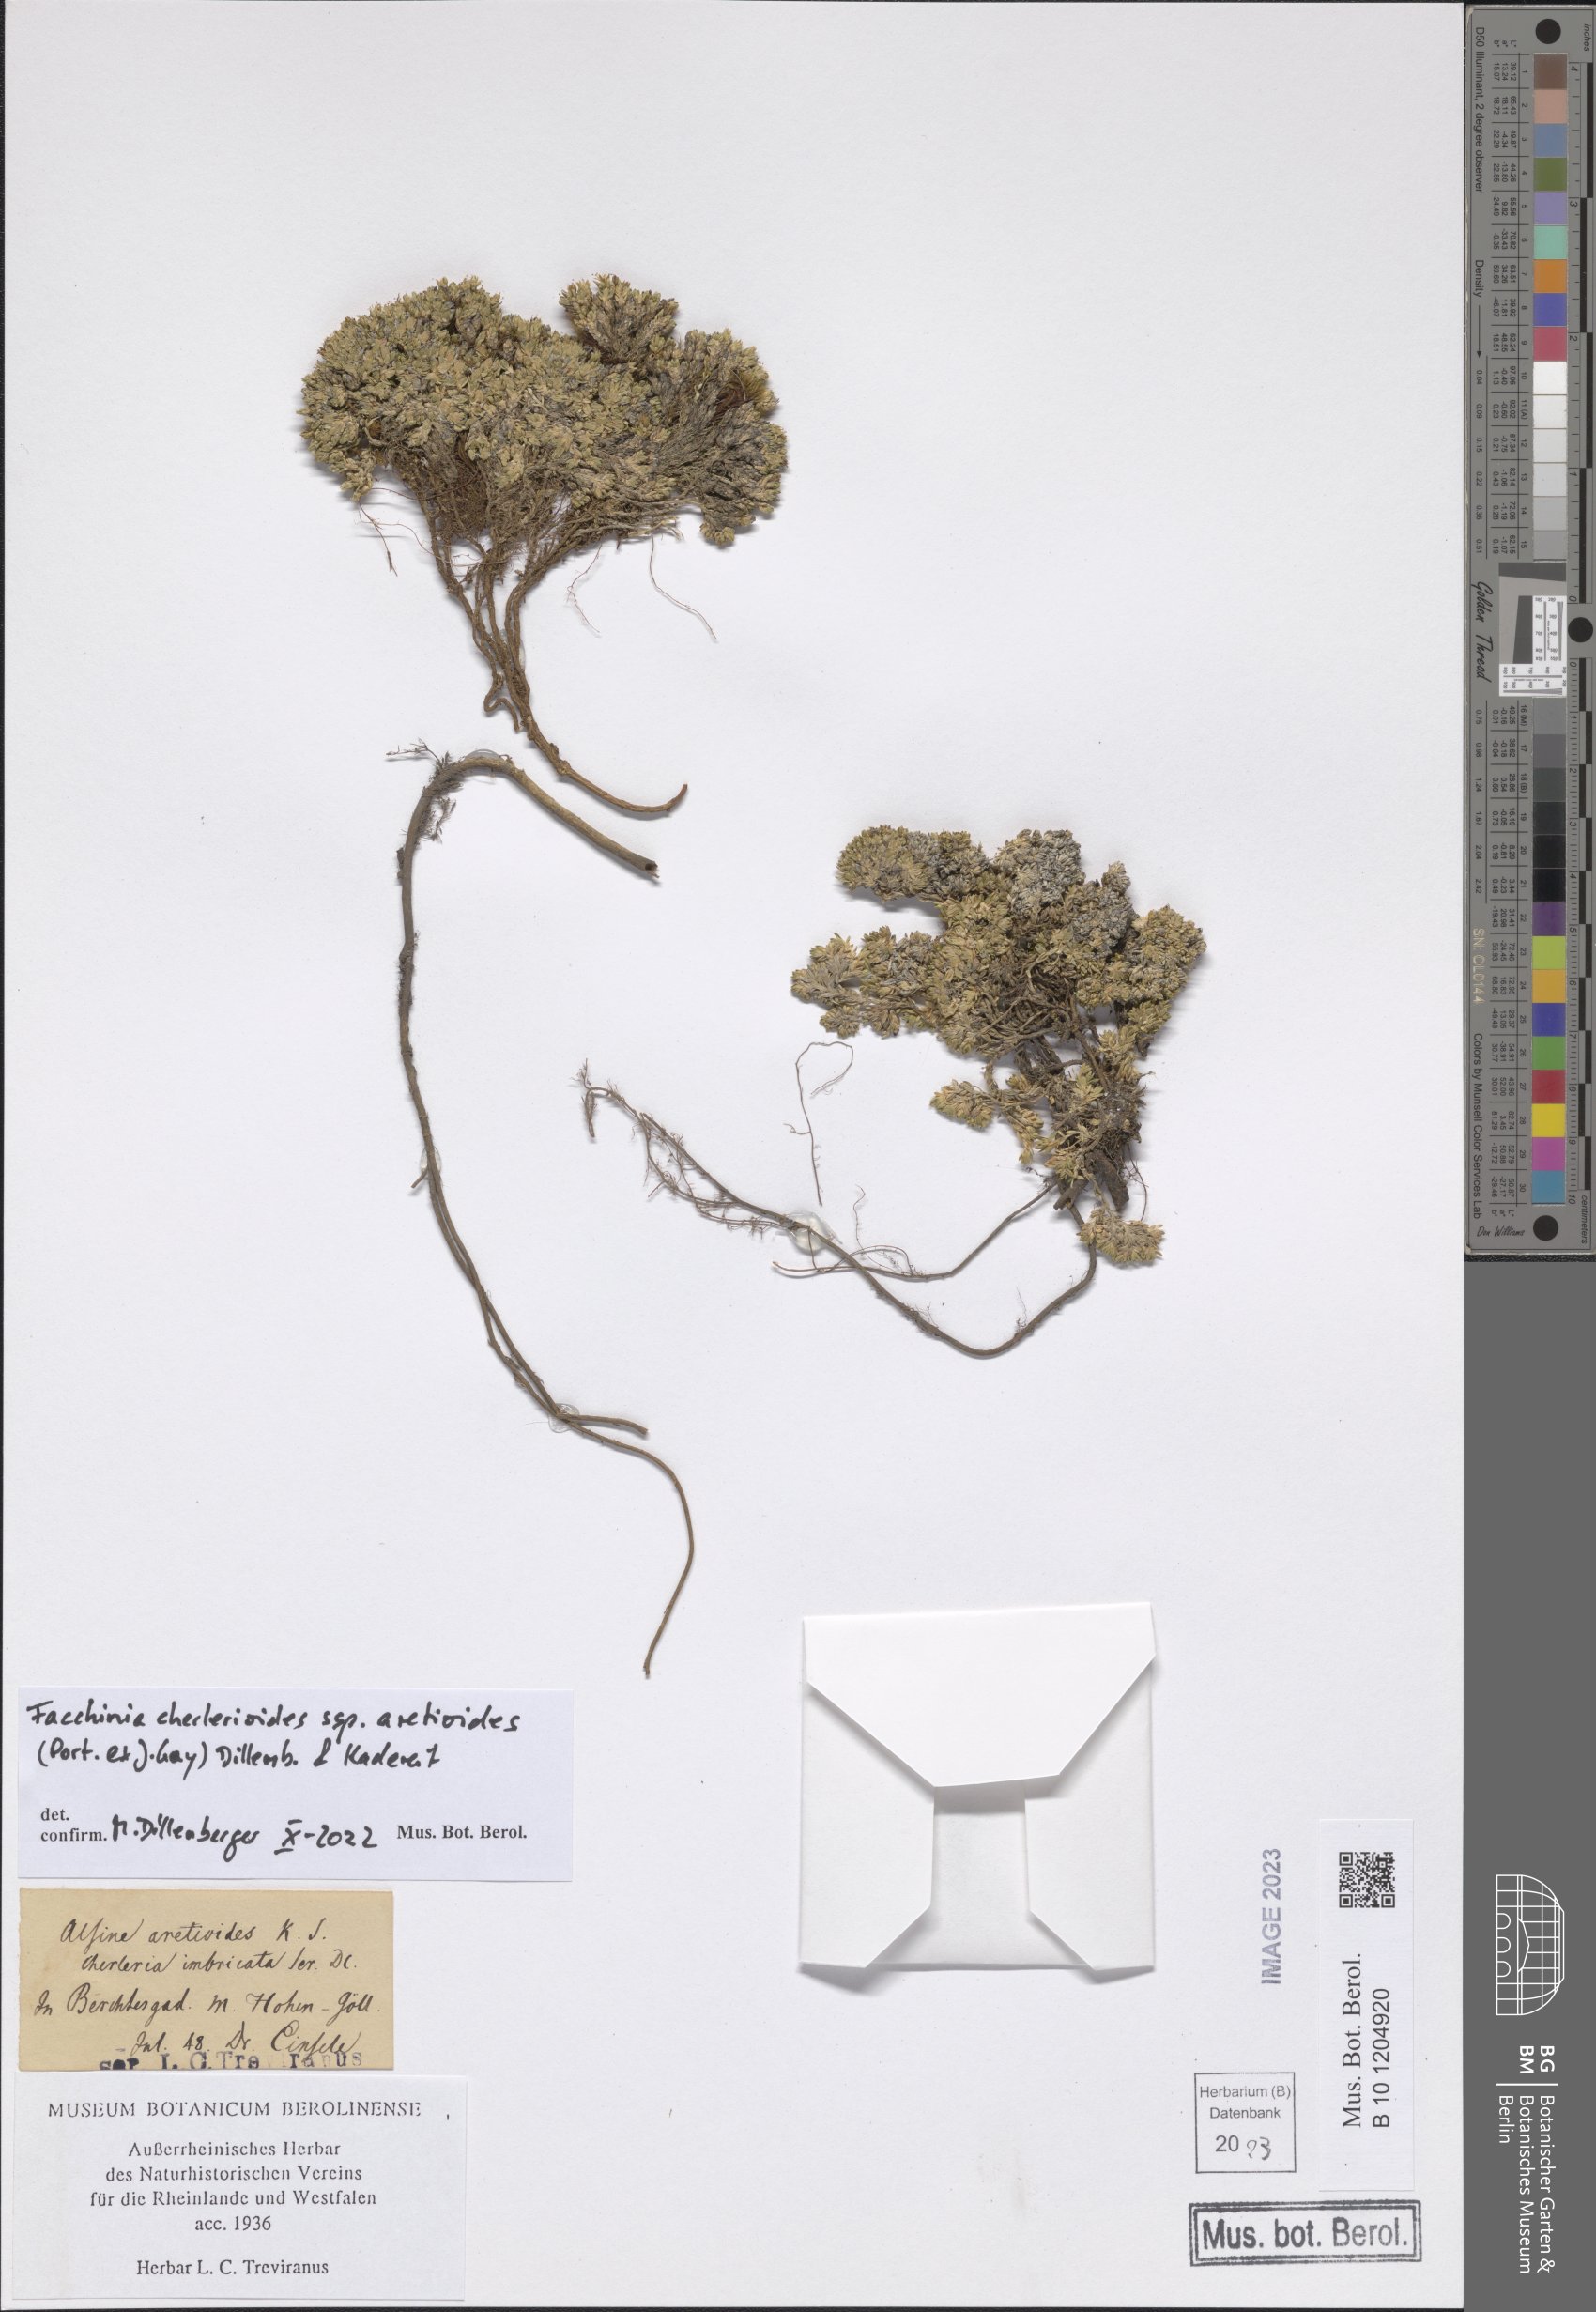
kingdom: Plantae
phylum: Tracheophyta
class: Magnoliopsida
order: Caryophyllales
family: Caryophyllaceae
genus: Facchinia
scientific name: Facchinia cherlerioides
